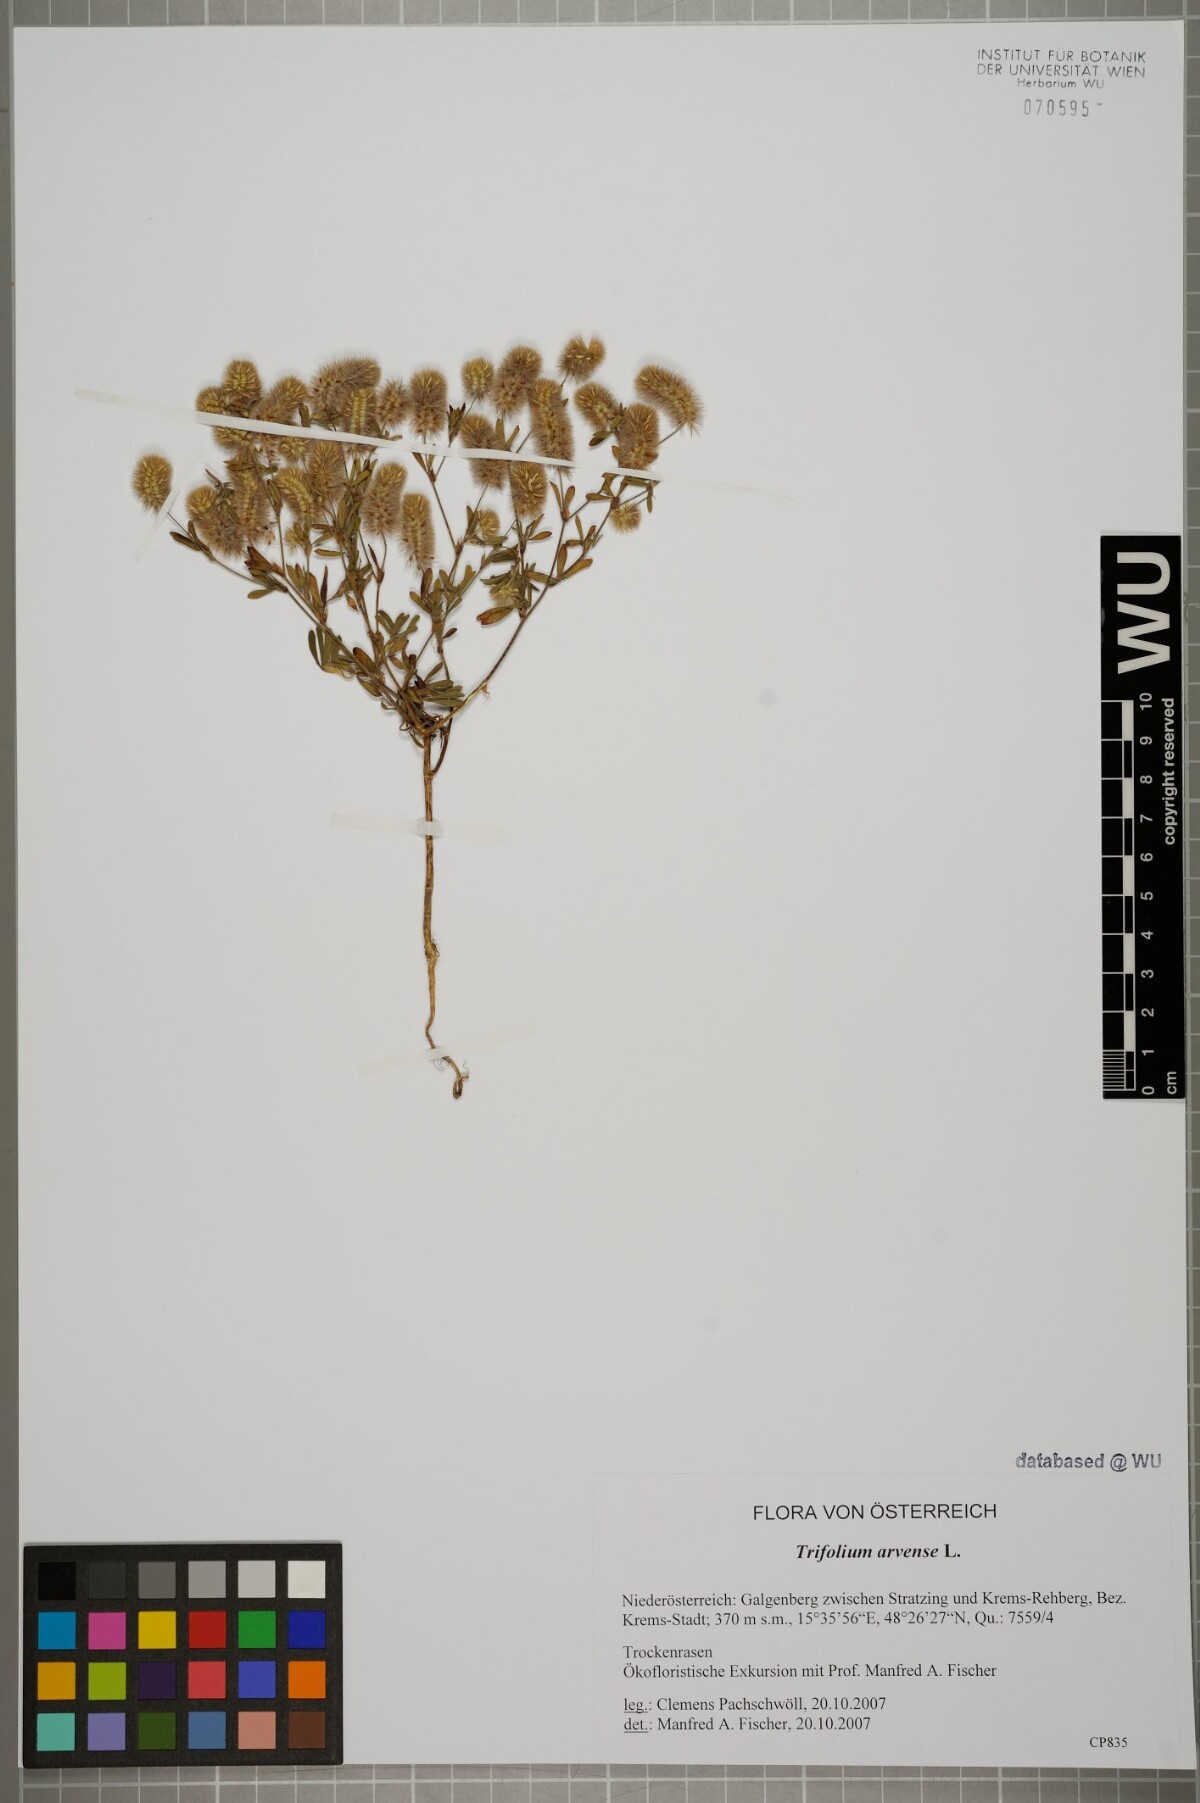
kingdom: Plantae
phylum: Tracheophyta
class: Magnoliopsida
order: Fabales
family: Fabaceae
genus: Trifolium
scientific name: Trifolium arvense
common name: Hare's-foot clover
